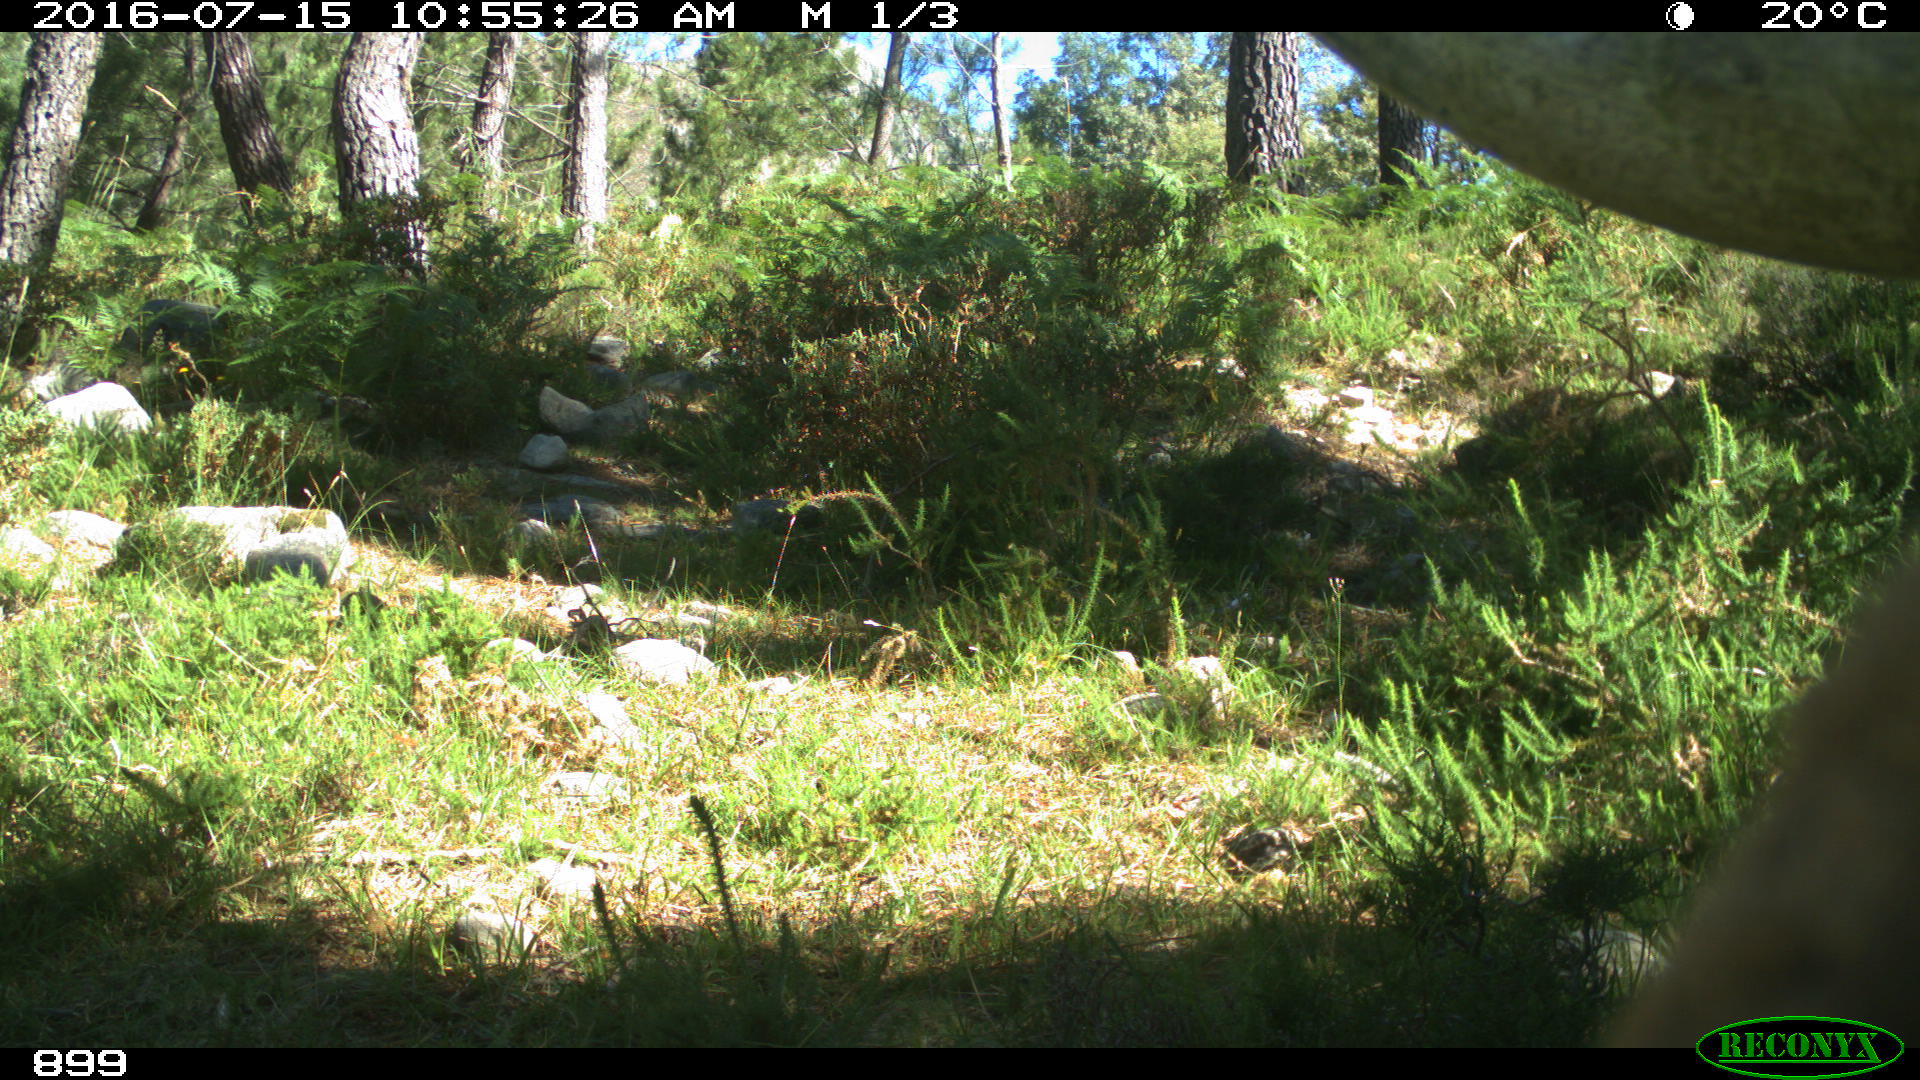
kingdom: Animalia
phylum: Chordata
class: Mammalia
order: Artiodactyla
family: Bovidae
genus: Bos
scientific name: Bos taurus
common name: Domesticated cattle
